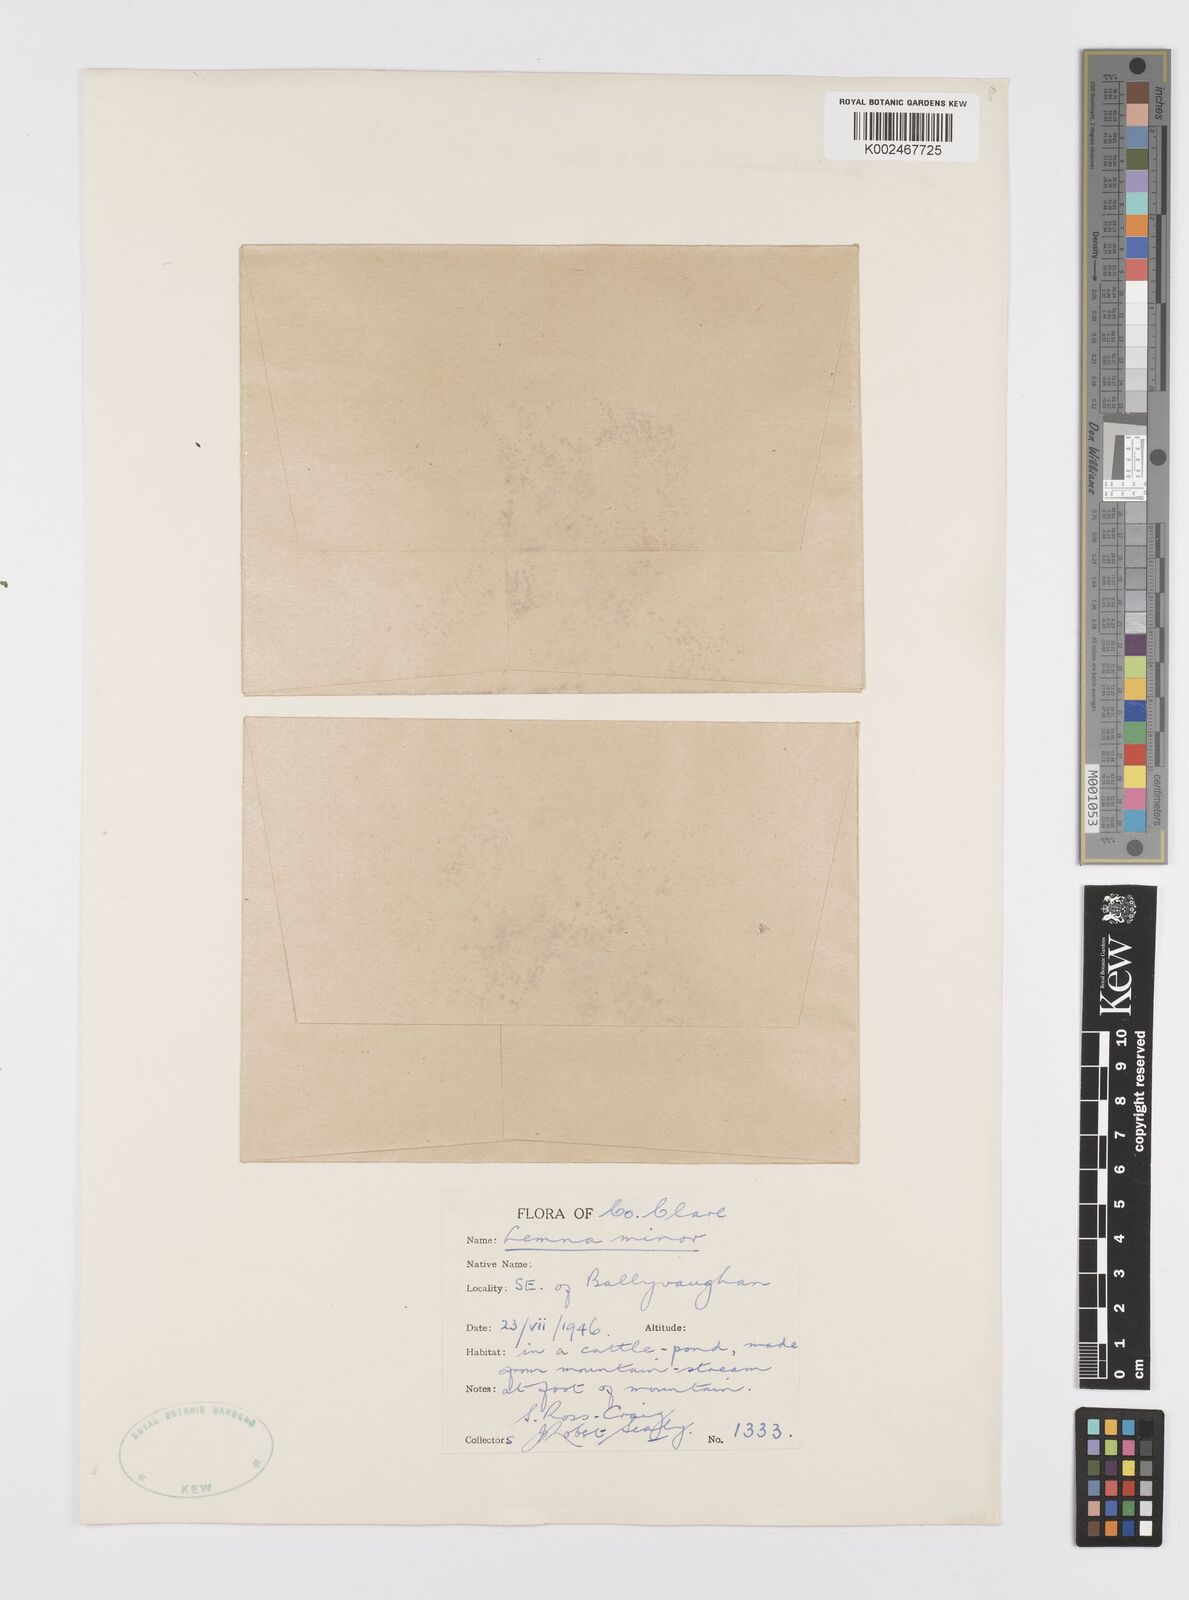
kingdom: Plantae
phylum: Tracheophyta
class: Liliopsida
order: Alismatales
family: Araceae
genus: Lemna
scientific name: Lemna minor
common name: Common duckweed
